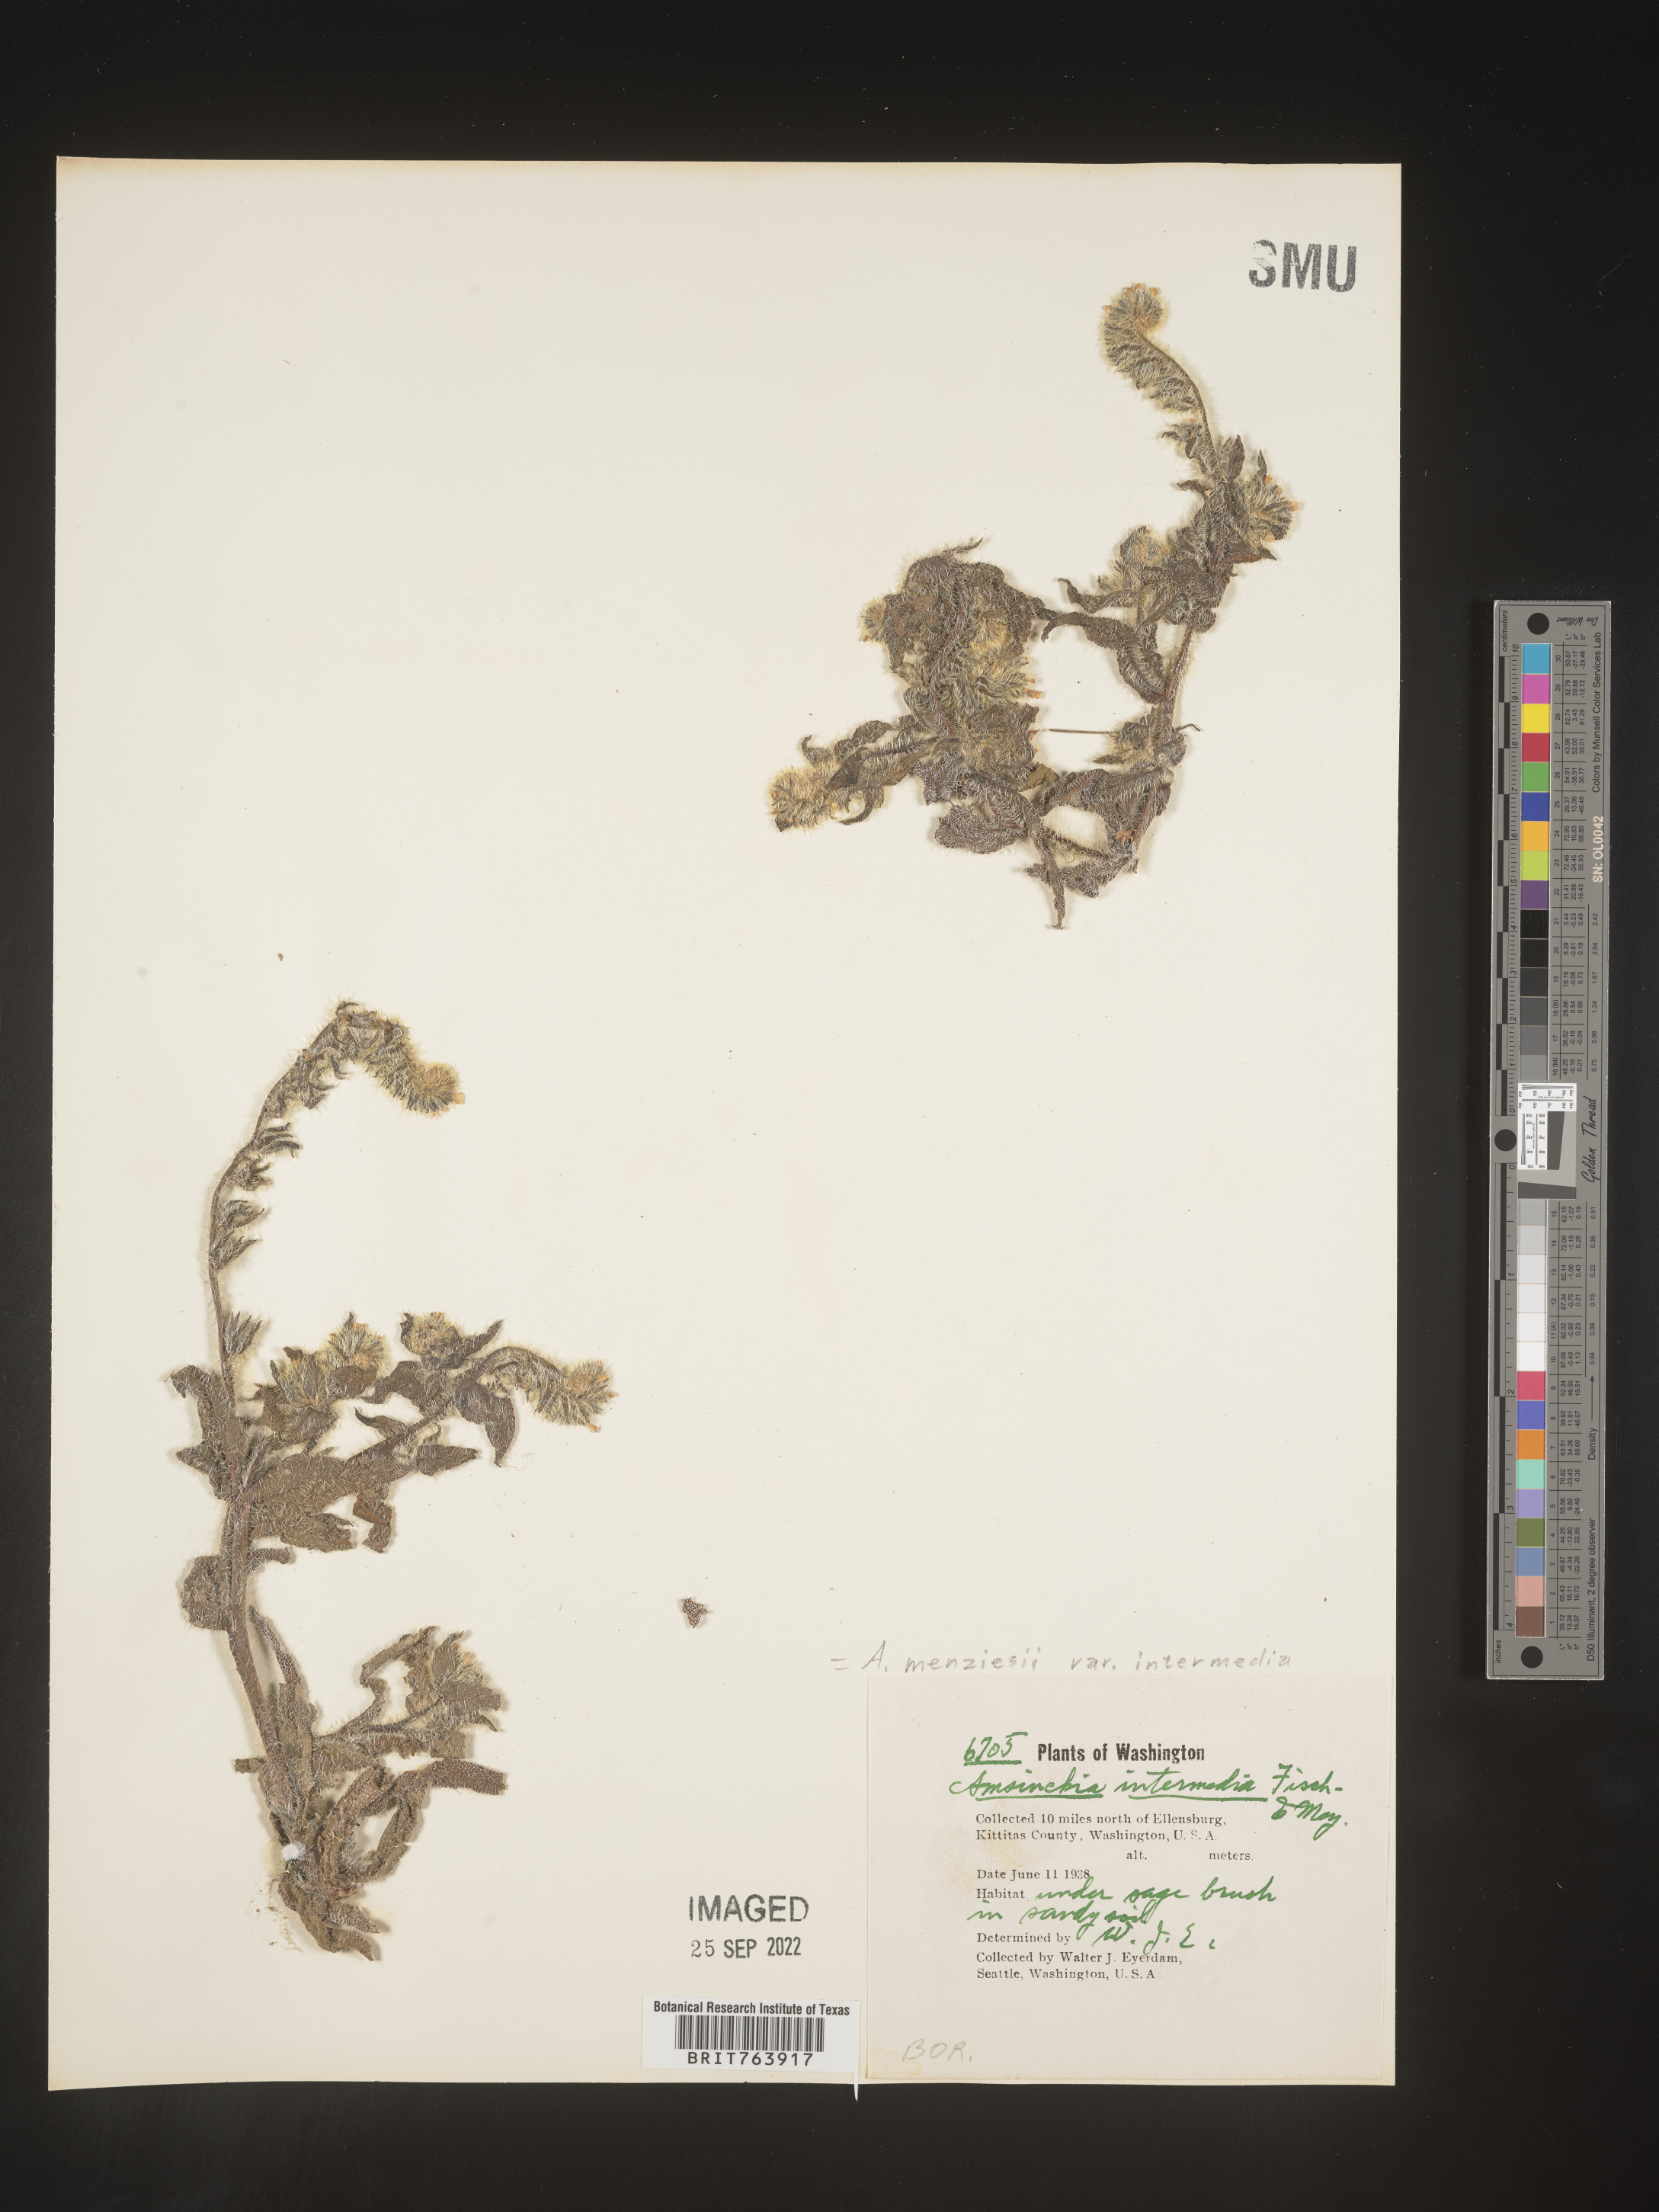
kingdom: Plantae
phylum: Tracheophyta
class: Magnoliopsida
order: Boraginales
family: Boraginaceae
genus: Amsinckia
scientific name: Amsinckia menziesii
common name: Menzies' fiddleneck
